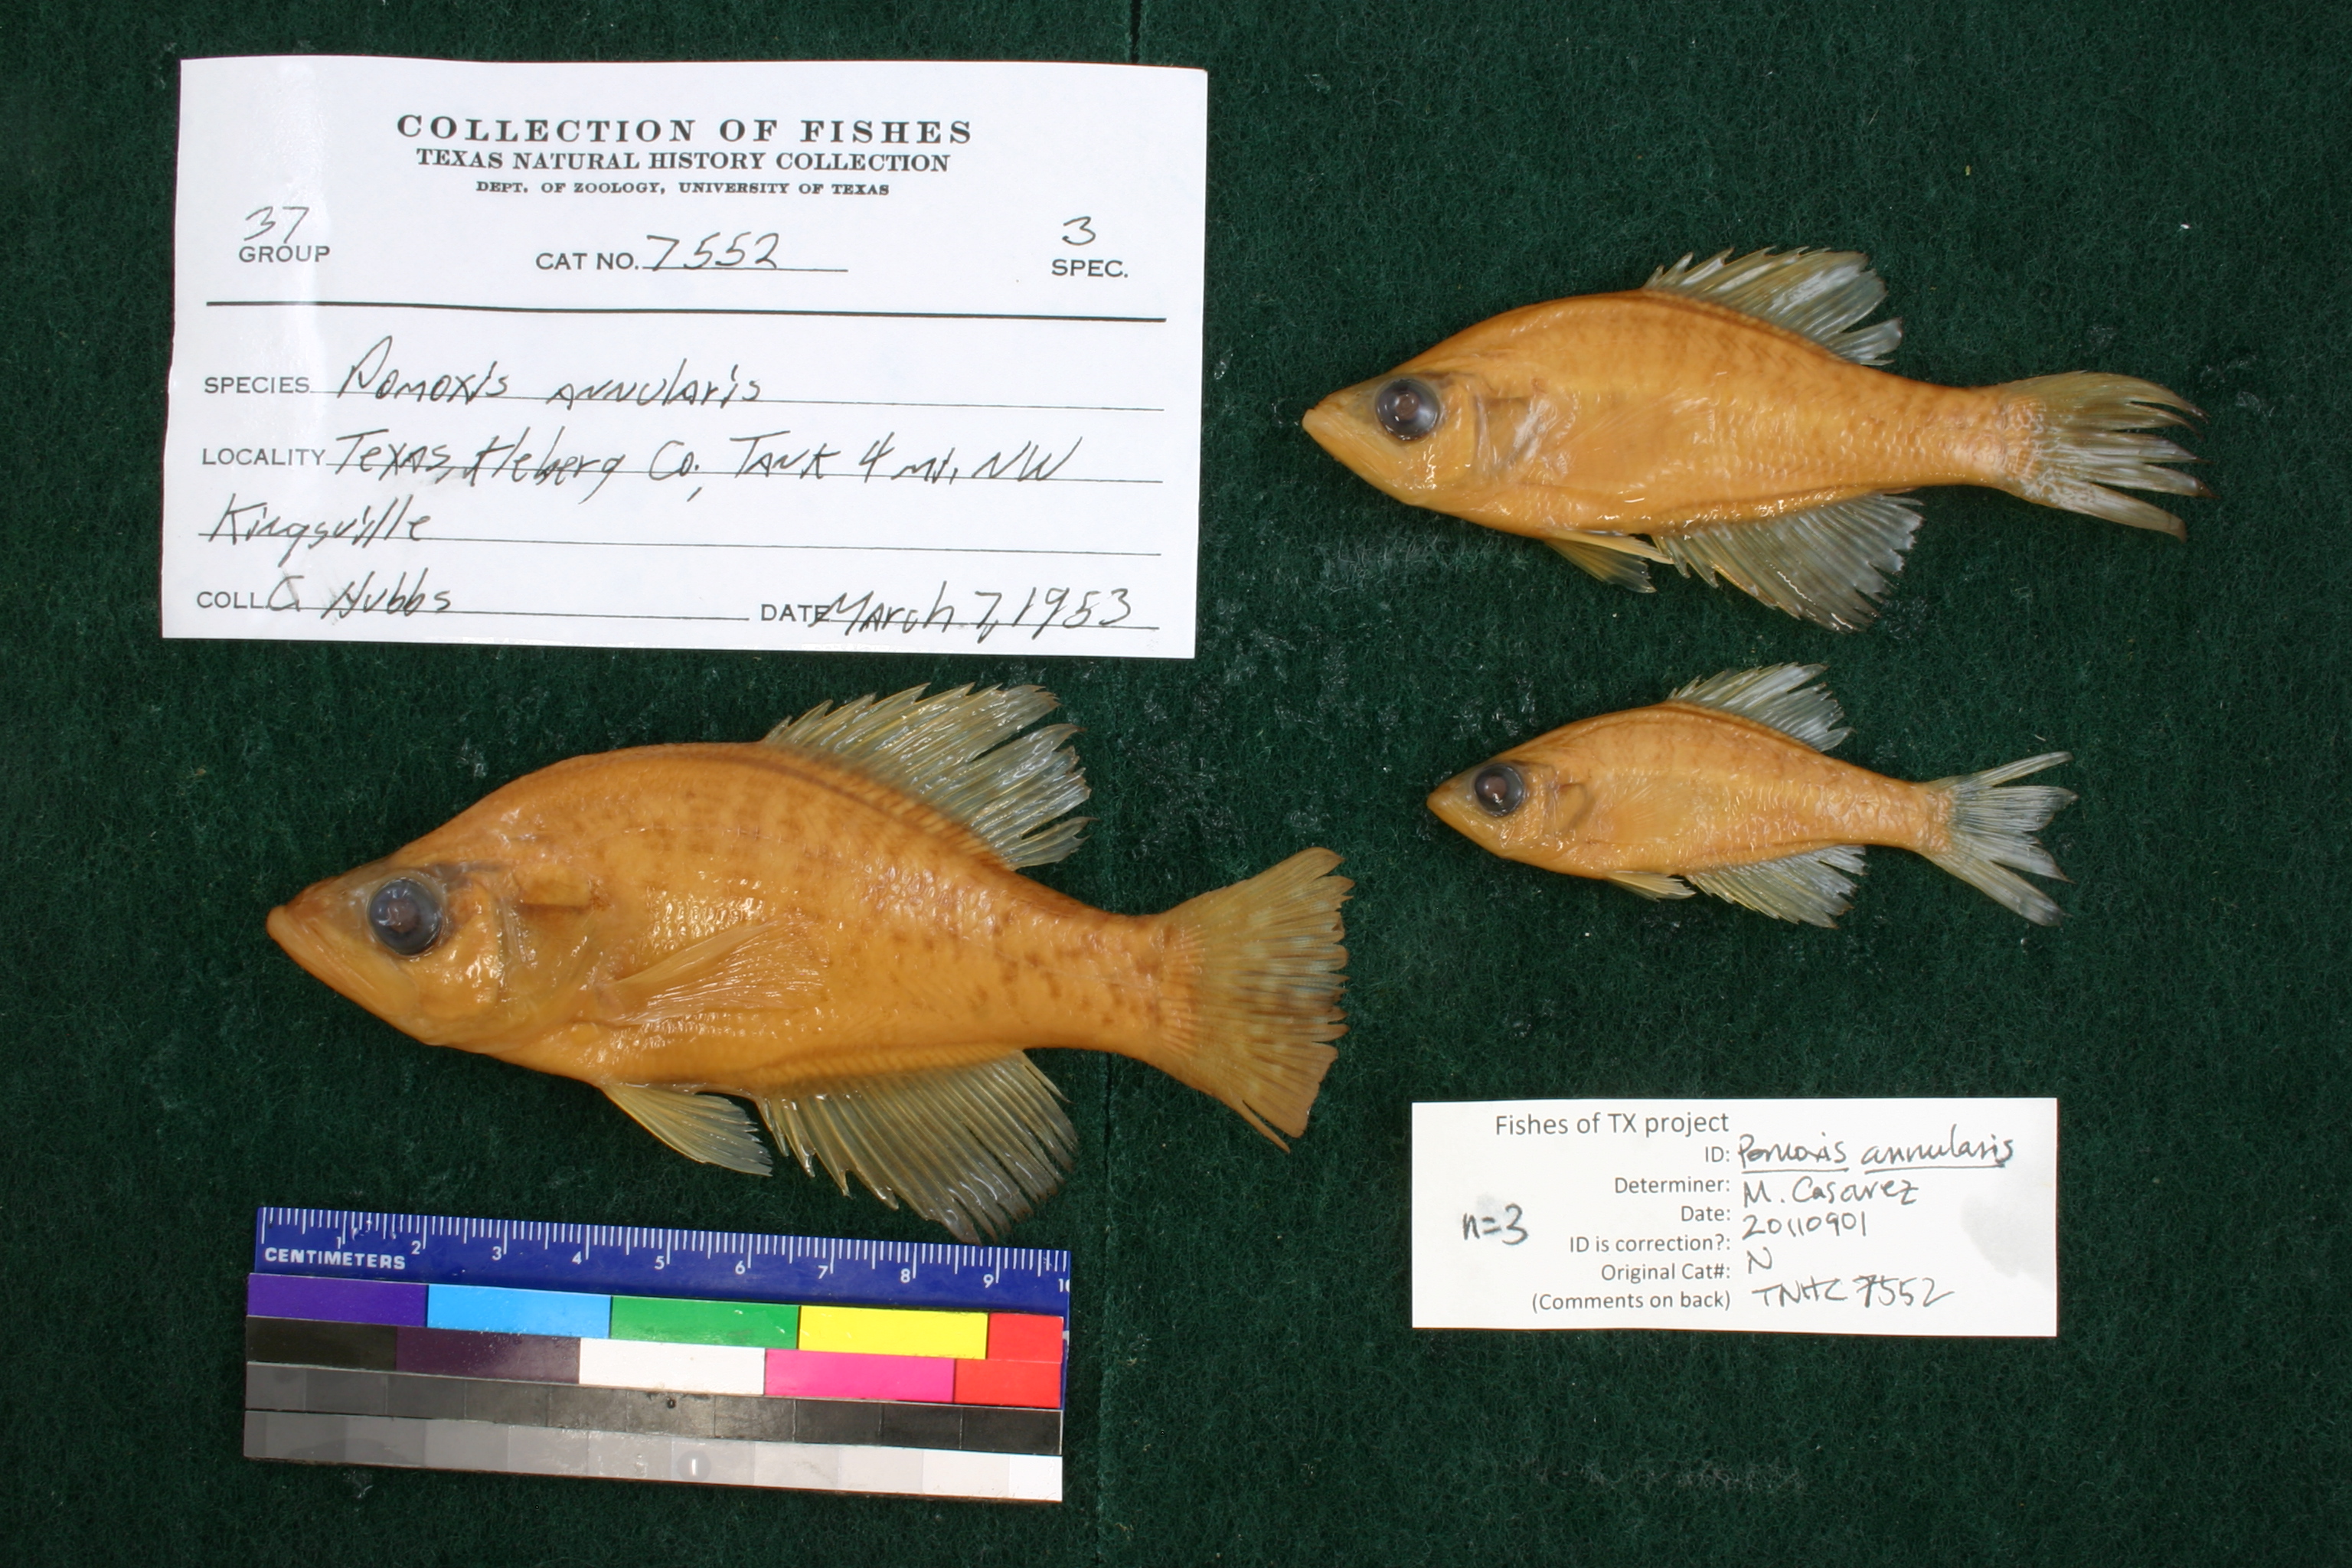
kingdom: Animalia
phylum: Chordata
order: Perciformes
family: Centrarchidae
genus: Pomoxis
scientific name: Pomoxis annularis
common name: White crappie
